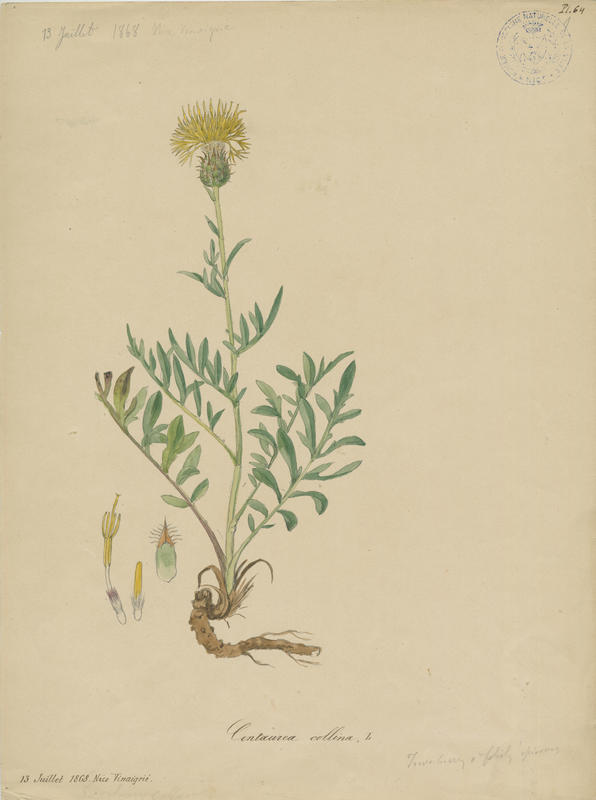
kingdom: Plantae
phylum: Tracheophyta
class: Magnoliopsida
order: Asterales
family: Asteraceae
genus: Centaurea
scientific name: Centaurea collina
